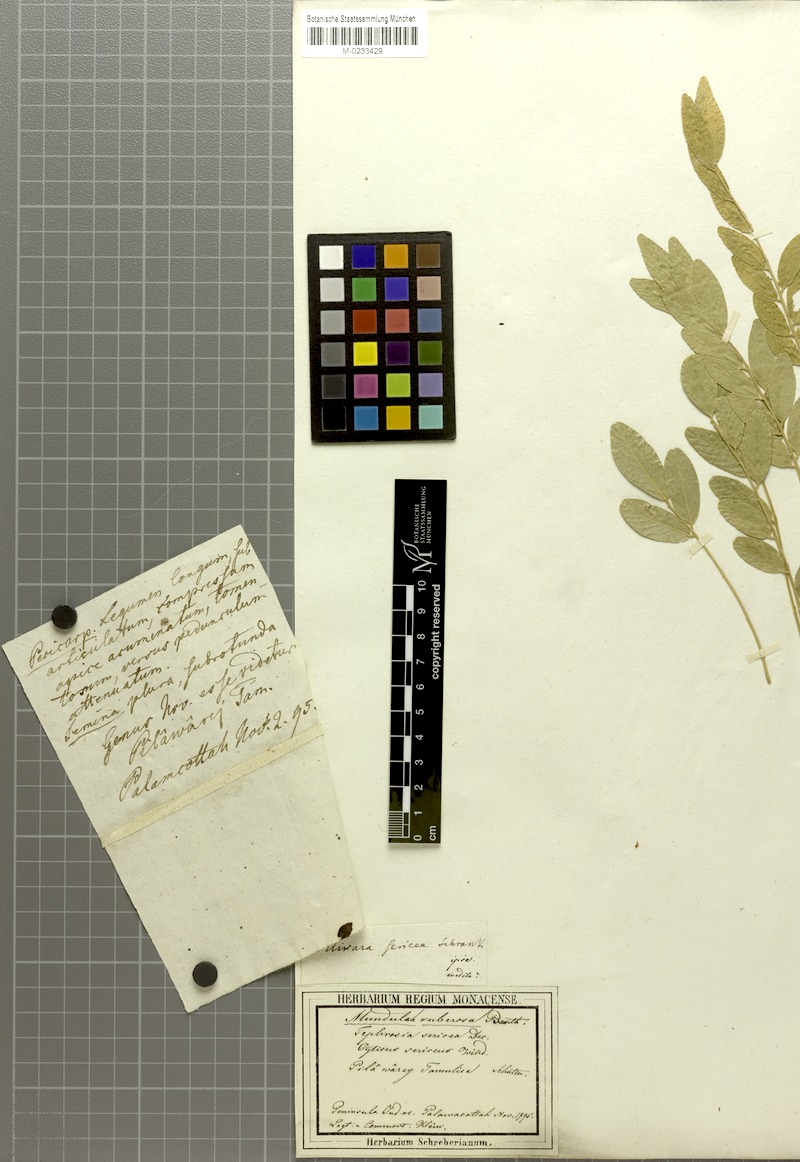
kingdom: Plantae
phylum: Tracheophyta
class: Magnoliopsida
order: Fabales
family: Fabaceae
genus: Mundulea
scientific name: Mundulea sericea
